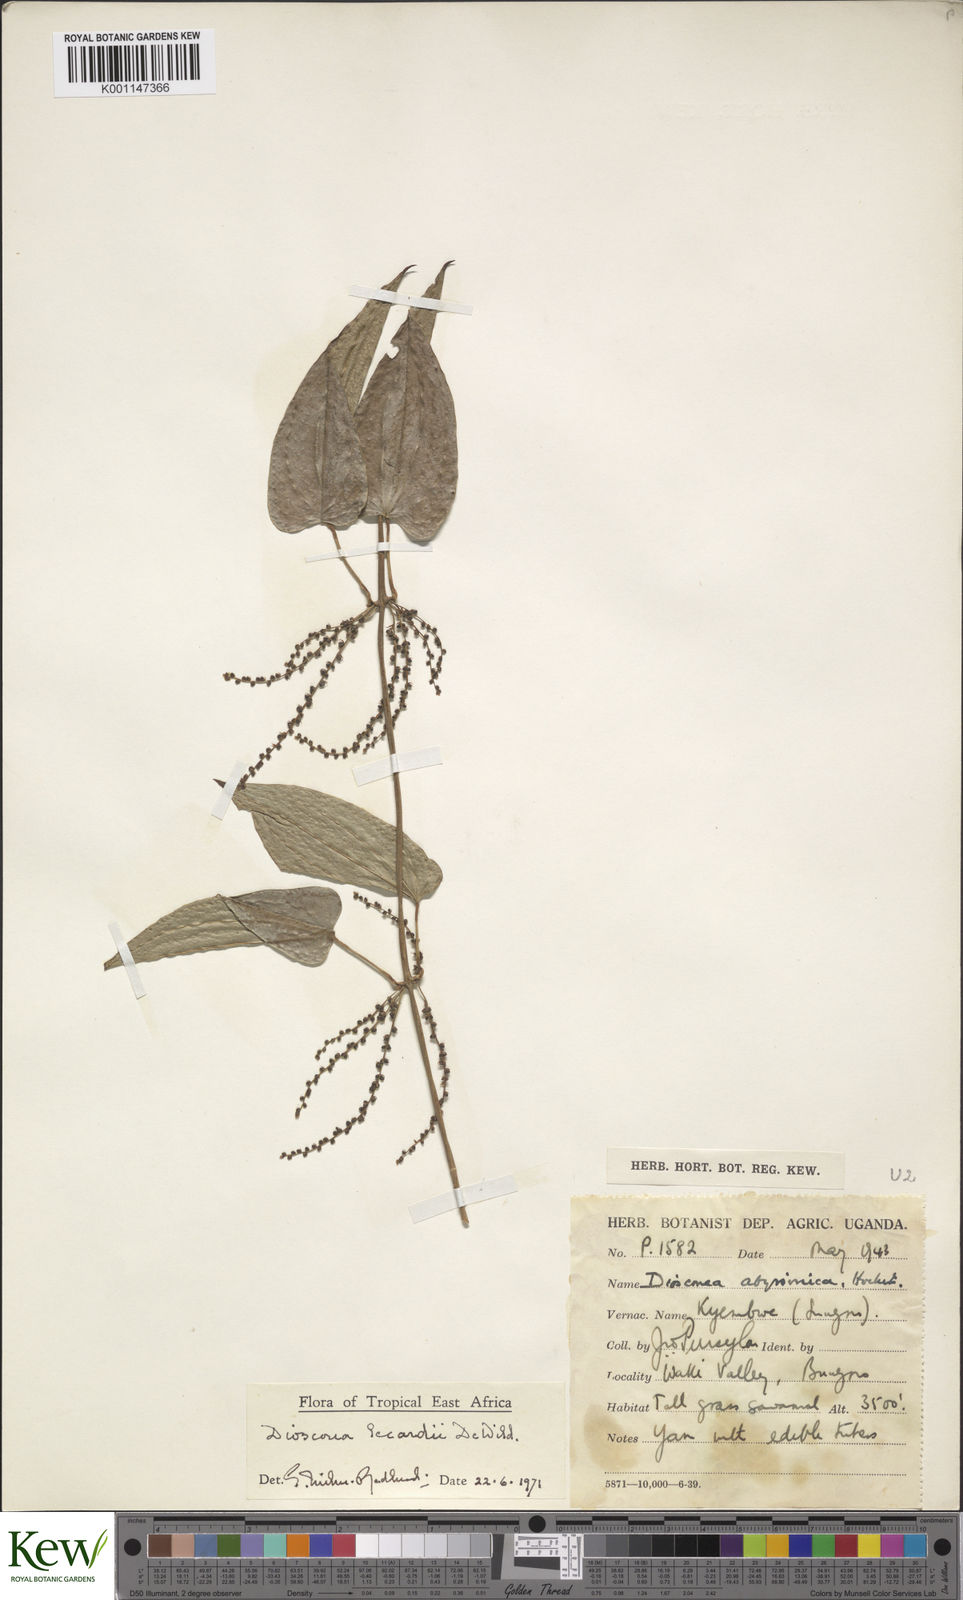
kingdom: Plantae
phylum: Tracheophyta
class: Liliopsida
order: Dioscoreales
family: Dioscoreaceae
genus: Dioscorea
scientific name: Dioscorea sagittifolia
